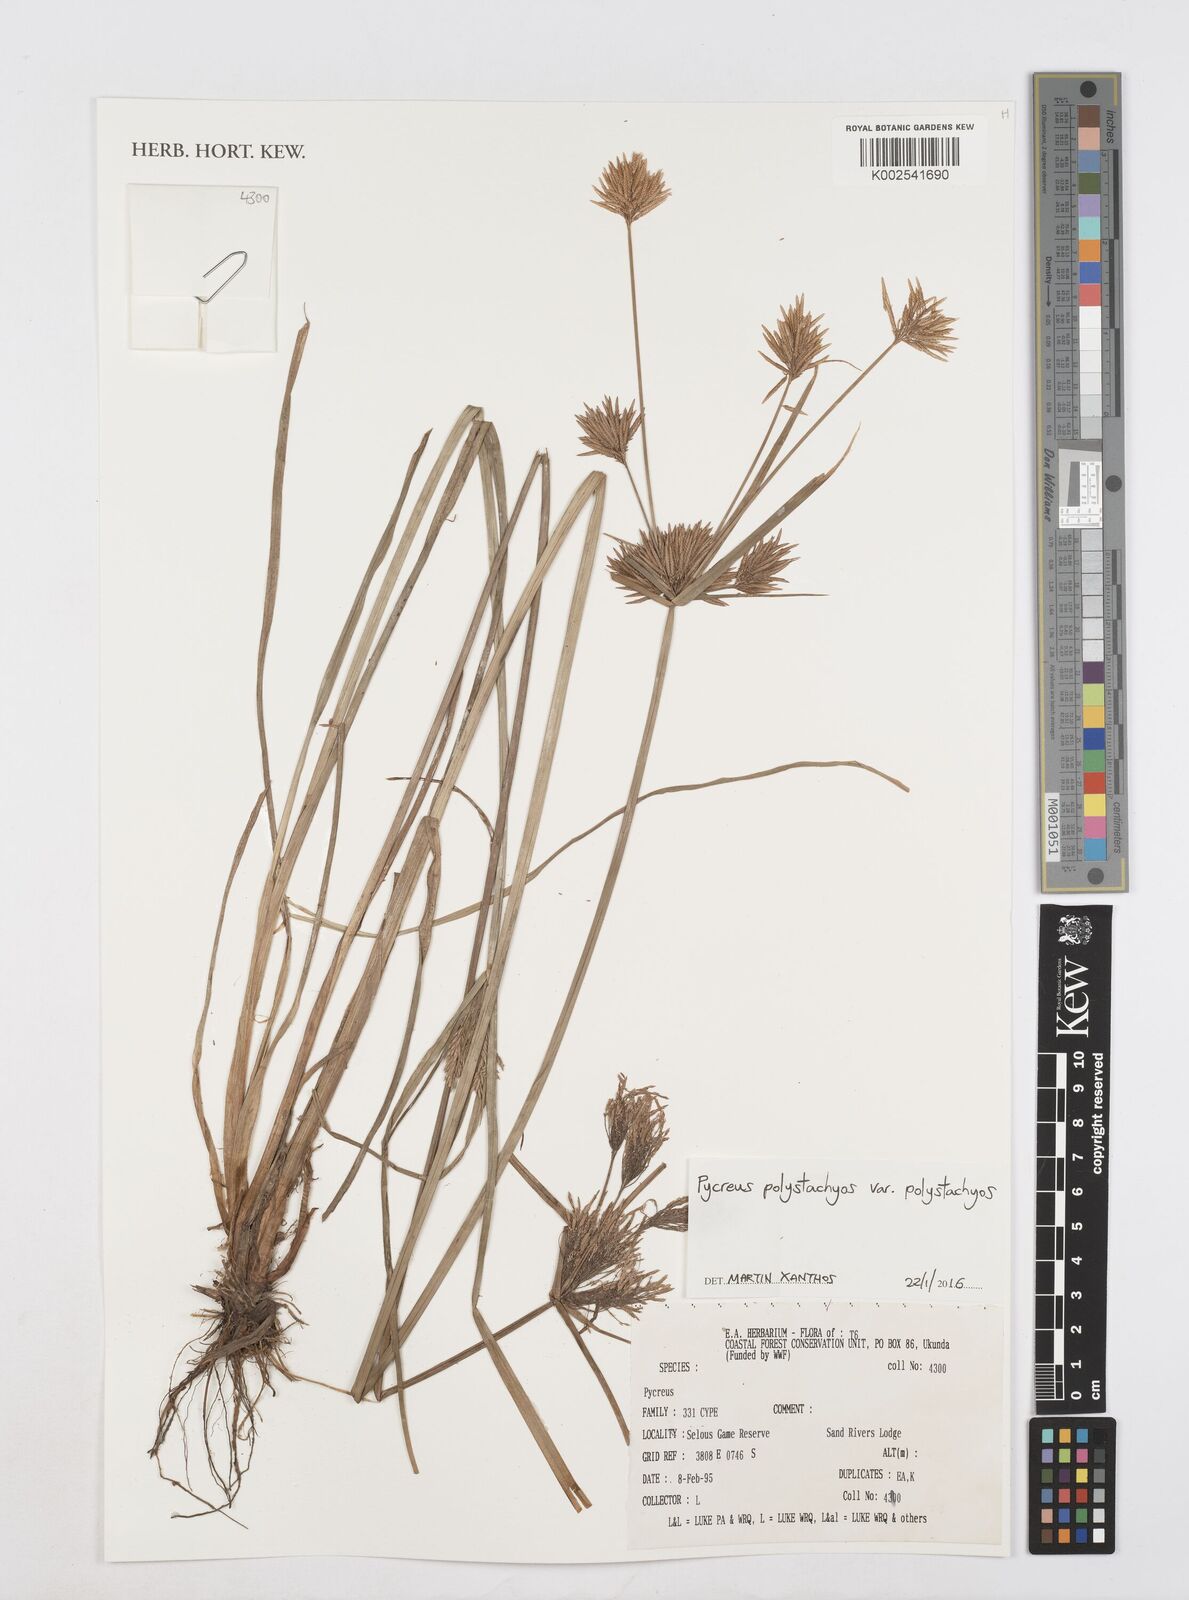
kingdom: Plantae
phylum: Tracheophyta
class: Liliopsida
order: Poales
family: Cyperaceae
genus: Cyperus
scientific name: Cyperus polystachyos
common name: Bunchy flat sedge
